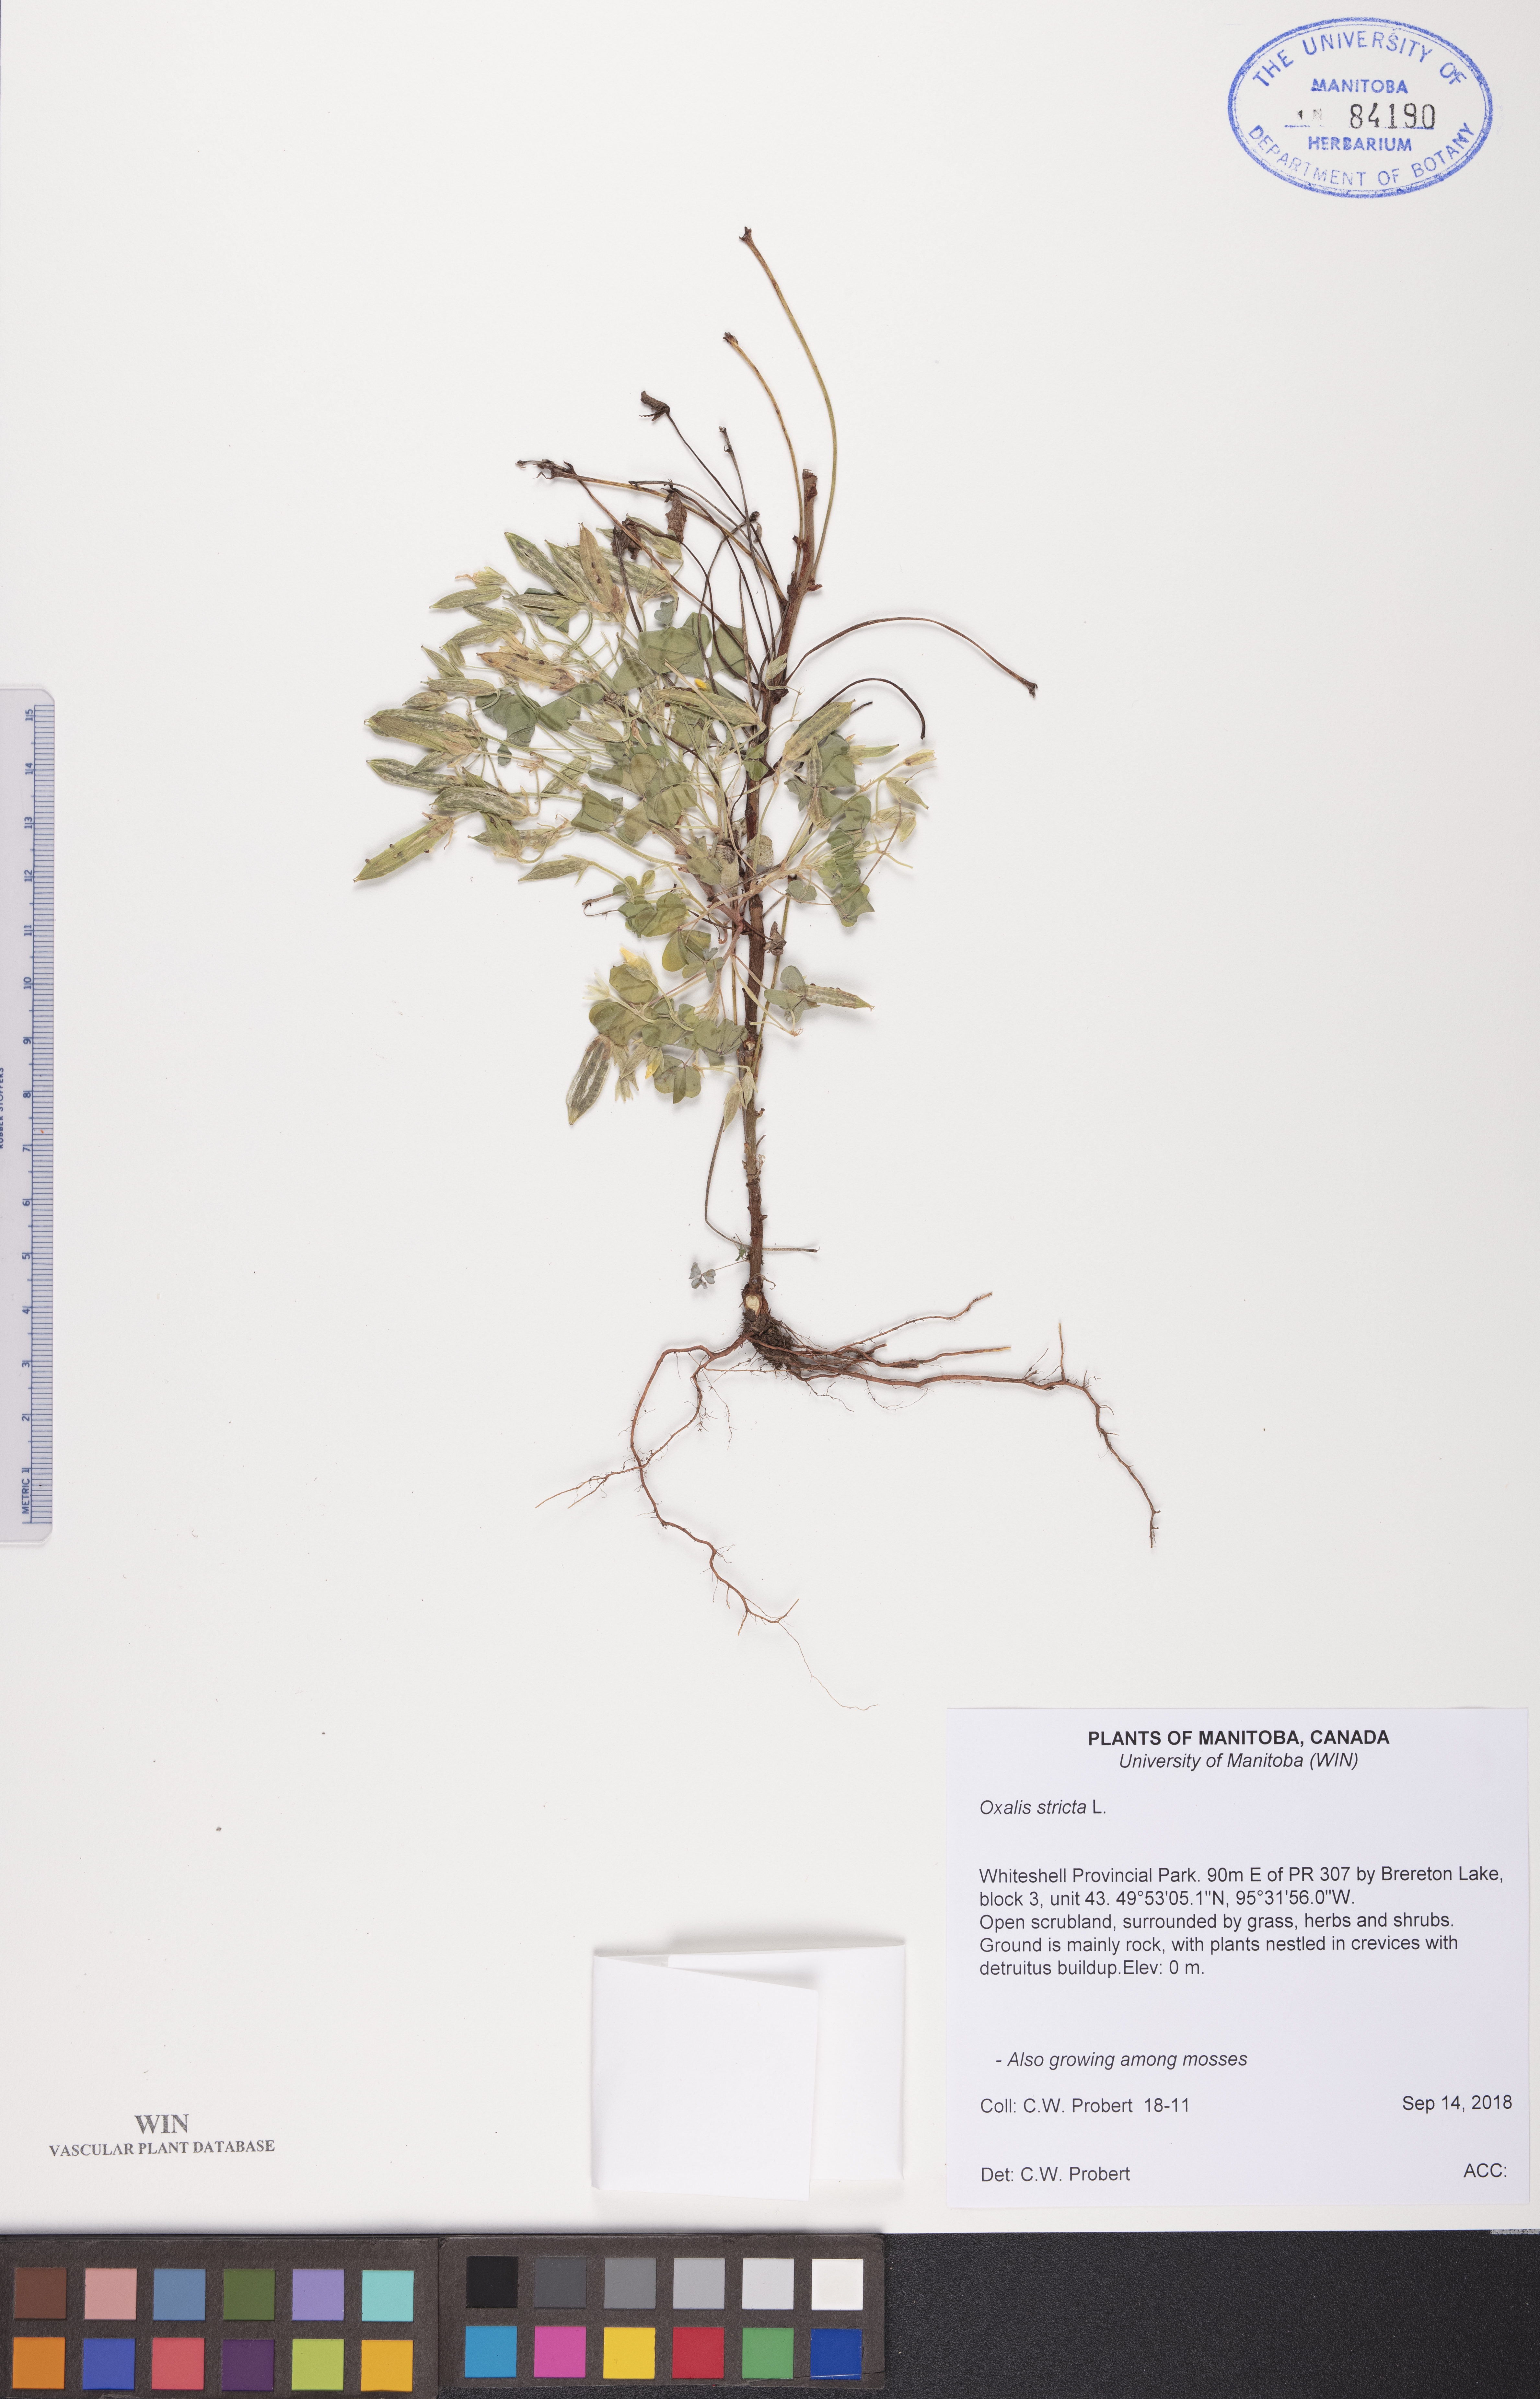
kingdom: Plantae
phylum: Tracheophyta
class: Magnoliopsida
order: Oxalidales
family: Oxalidaceae
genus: Oxalis
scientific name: Oxalis stricta
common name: Upright yellow-sorrel
